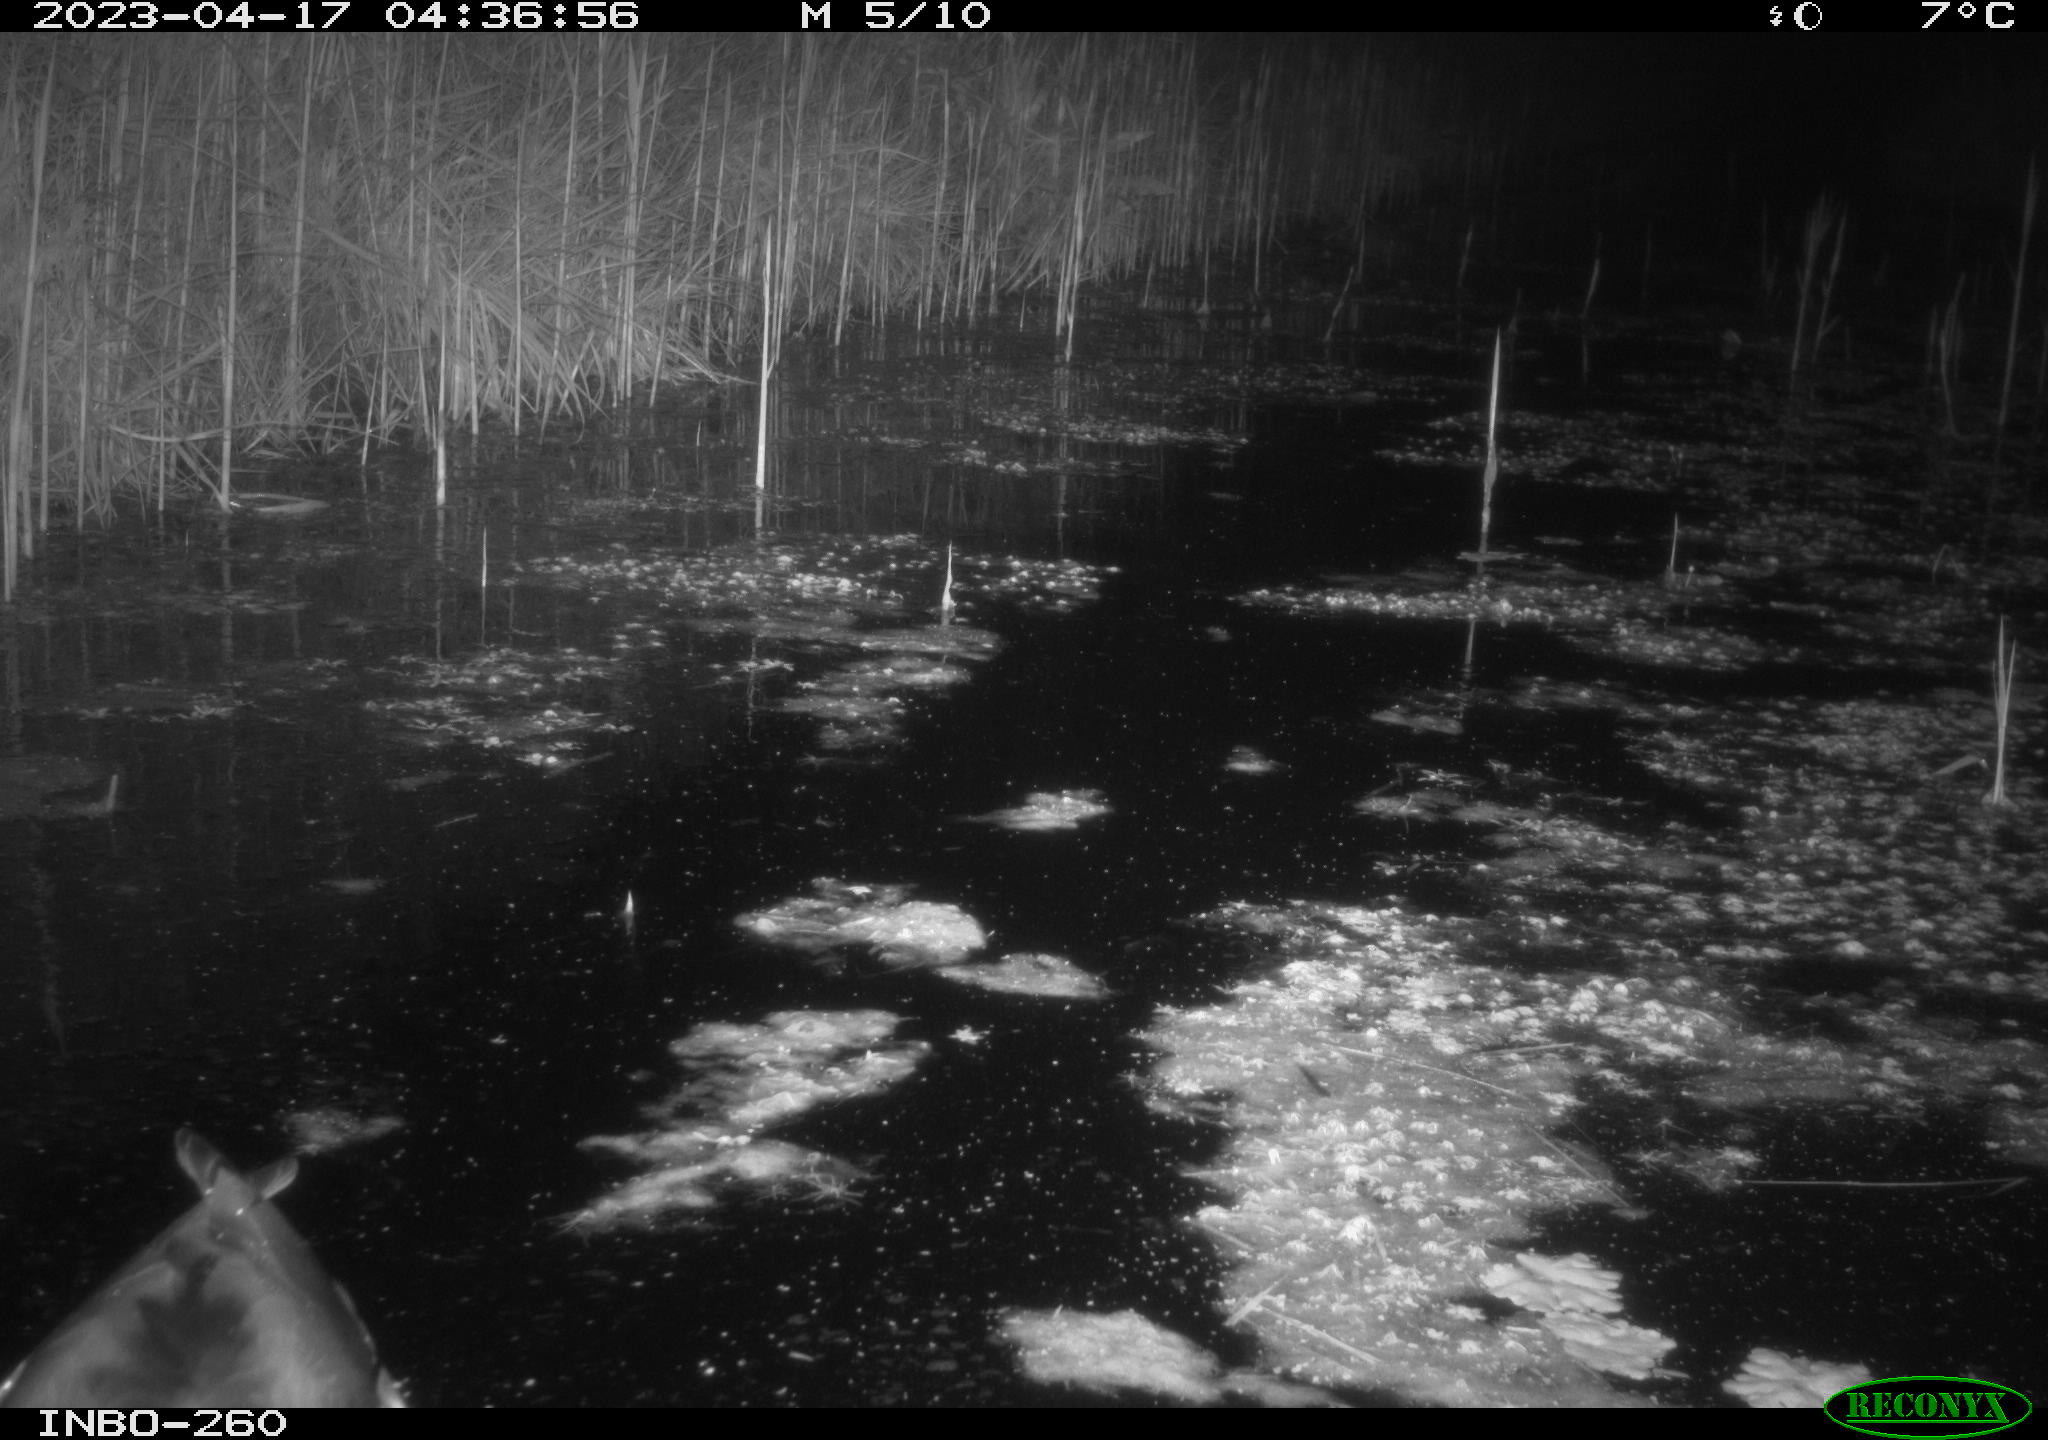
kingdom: Animalia
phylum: Chordata
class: Aves
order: Anseriformes
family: Anatidae
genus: Anas
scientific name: Anas
